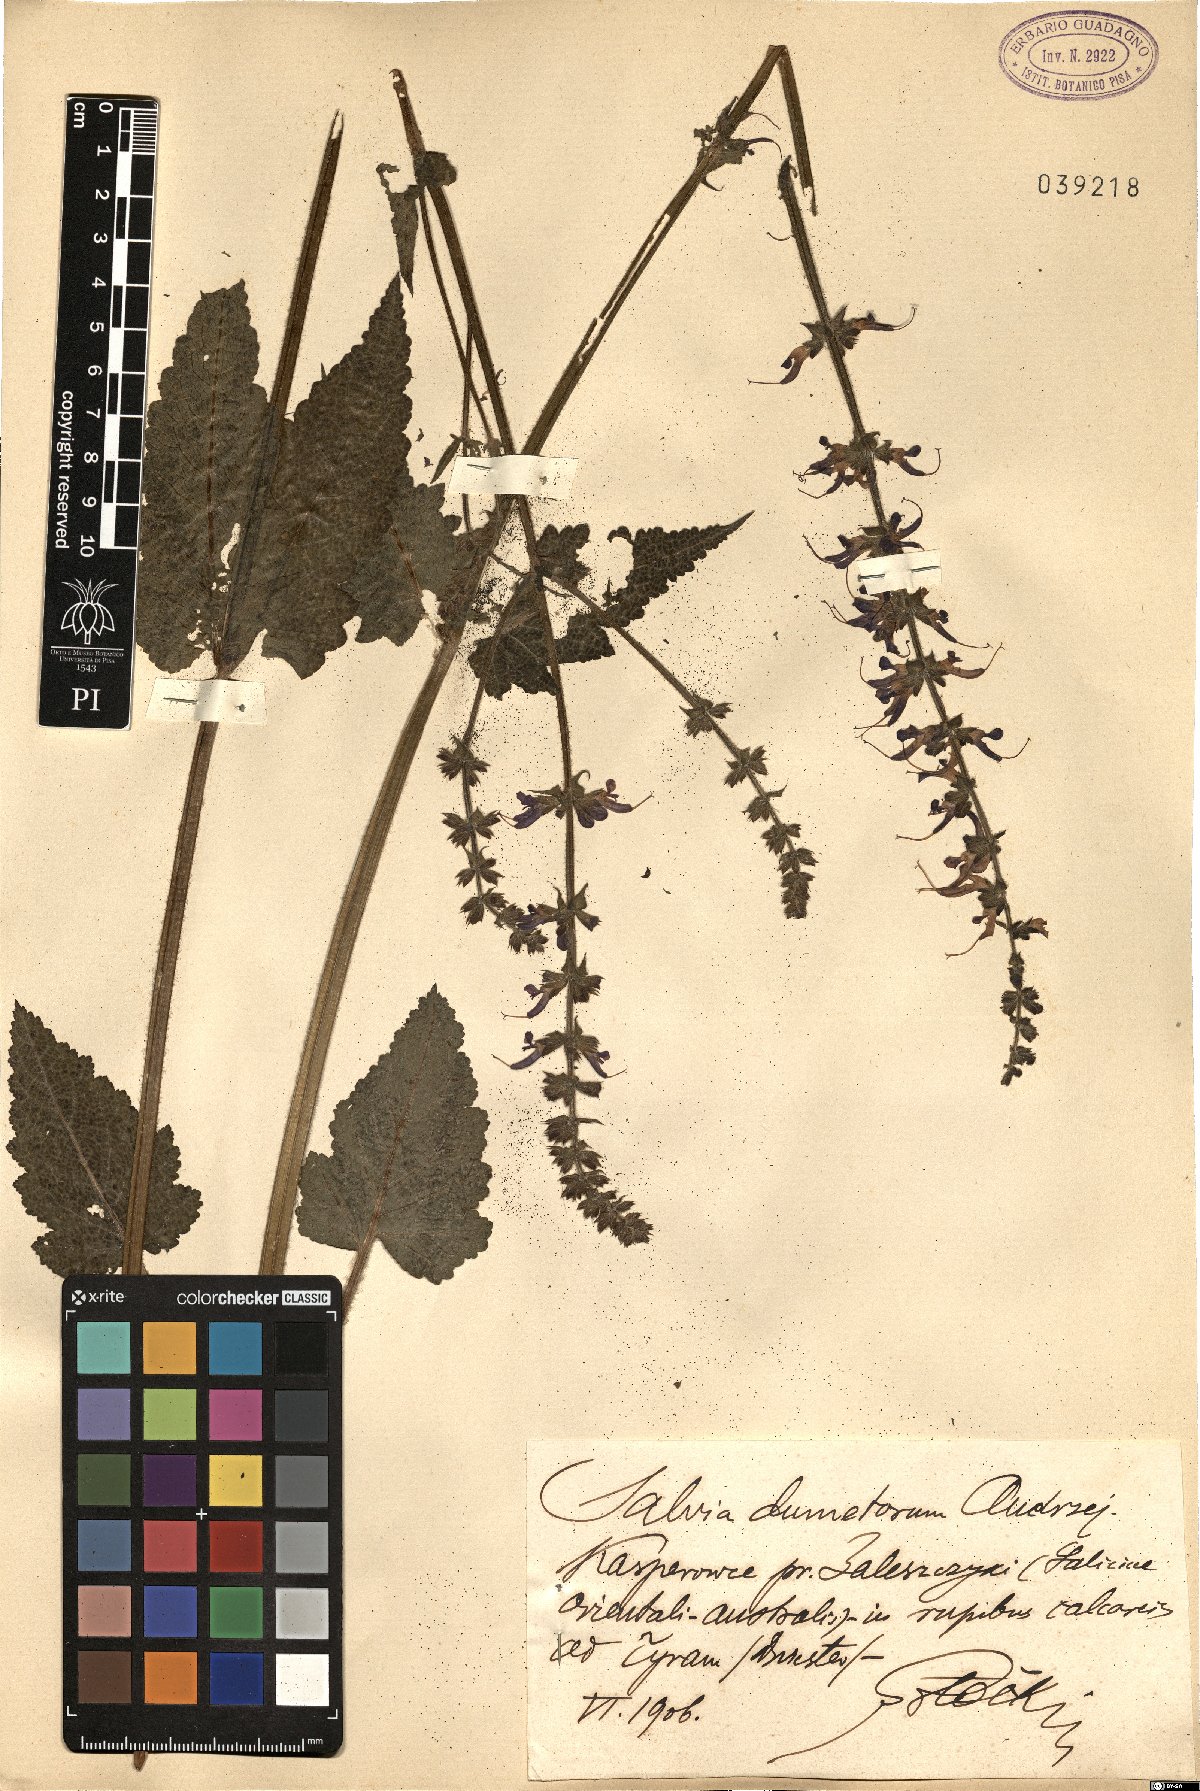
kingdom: Plantae
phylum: Tracheophyta
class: Magnoliopsida
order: Lamiales
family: Lamiaceae
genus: Salvia
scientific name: Salvia dumetorum
